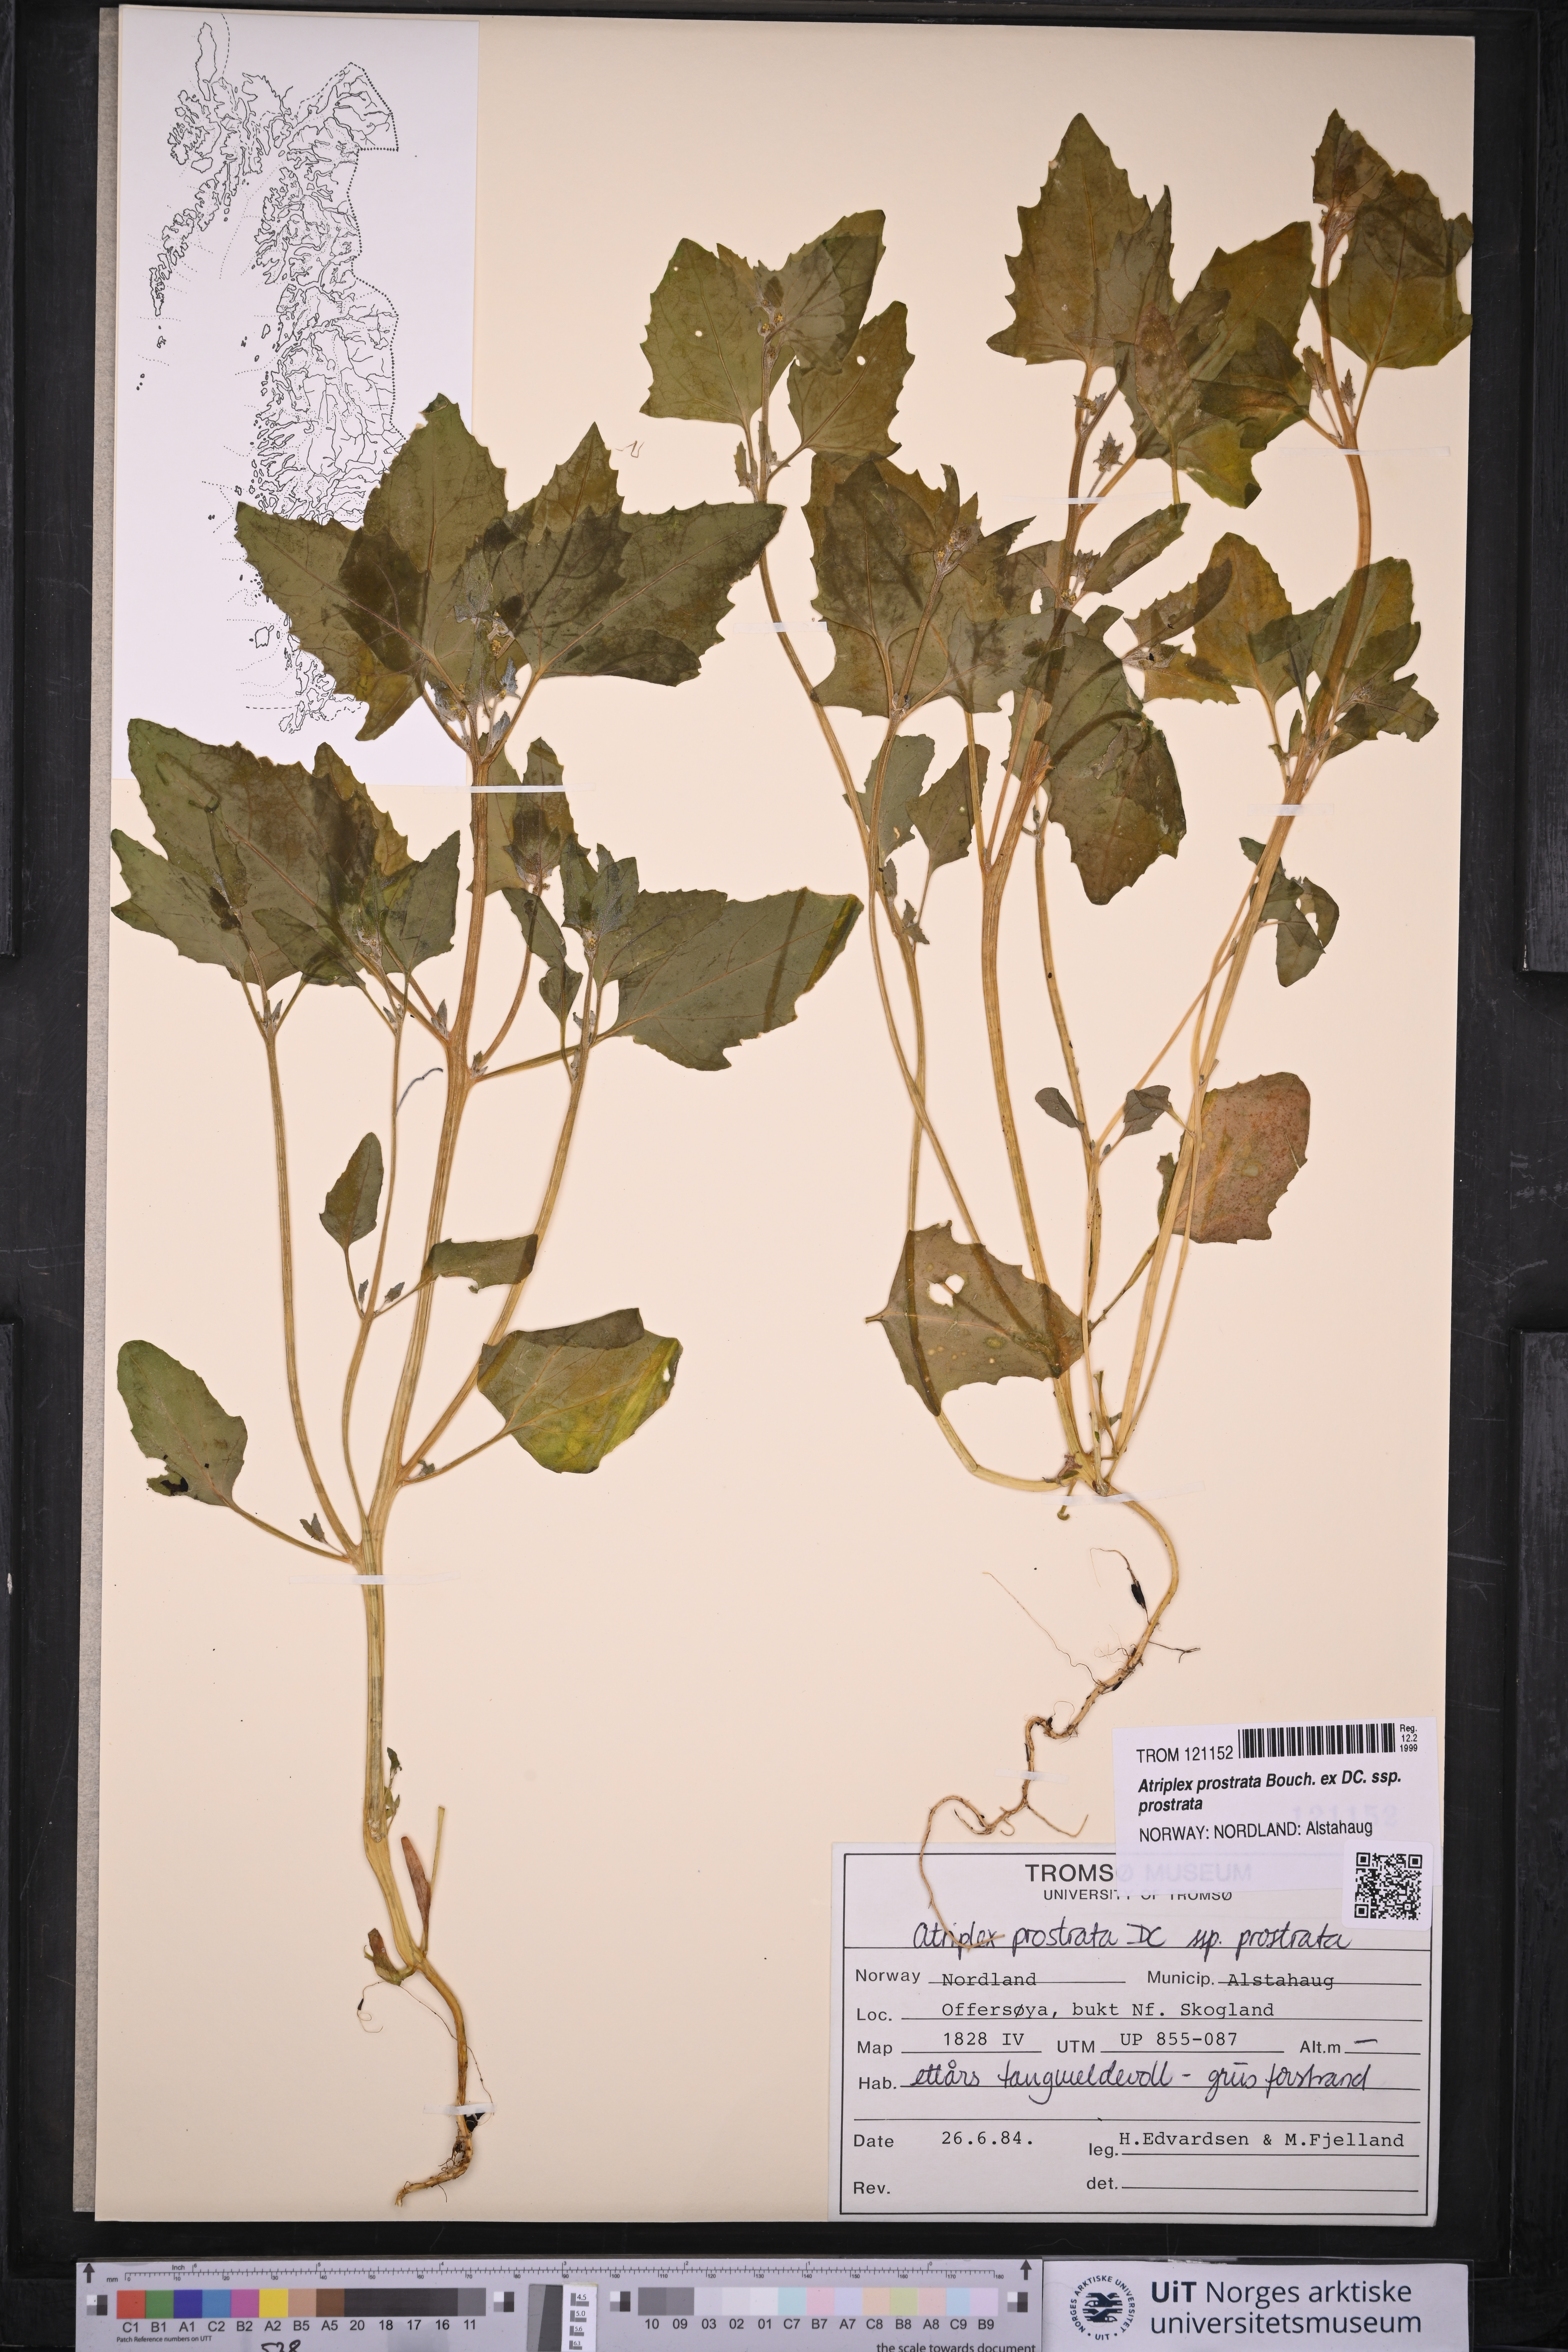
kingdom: Plantae
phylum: Tracheophyta
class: Magnoliopsida
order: Caryophyllales
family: Amaranthaceae
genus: Atriplex
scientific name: Atriplex prostrata
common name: Spear-leaved orache
